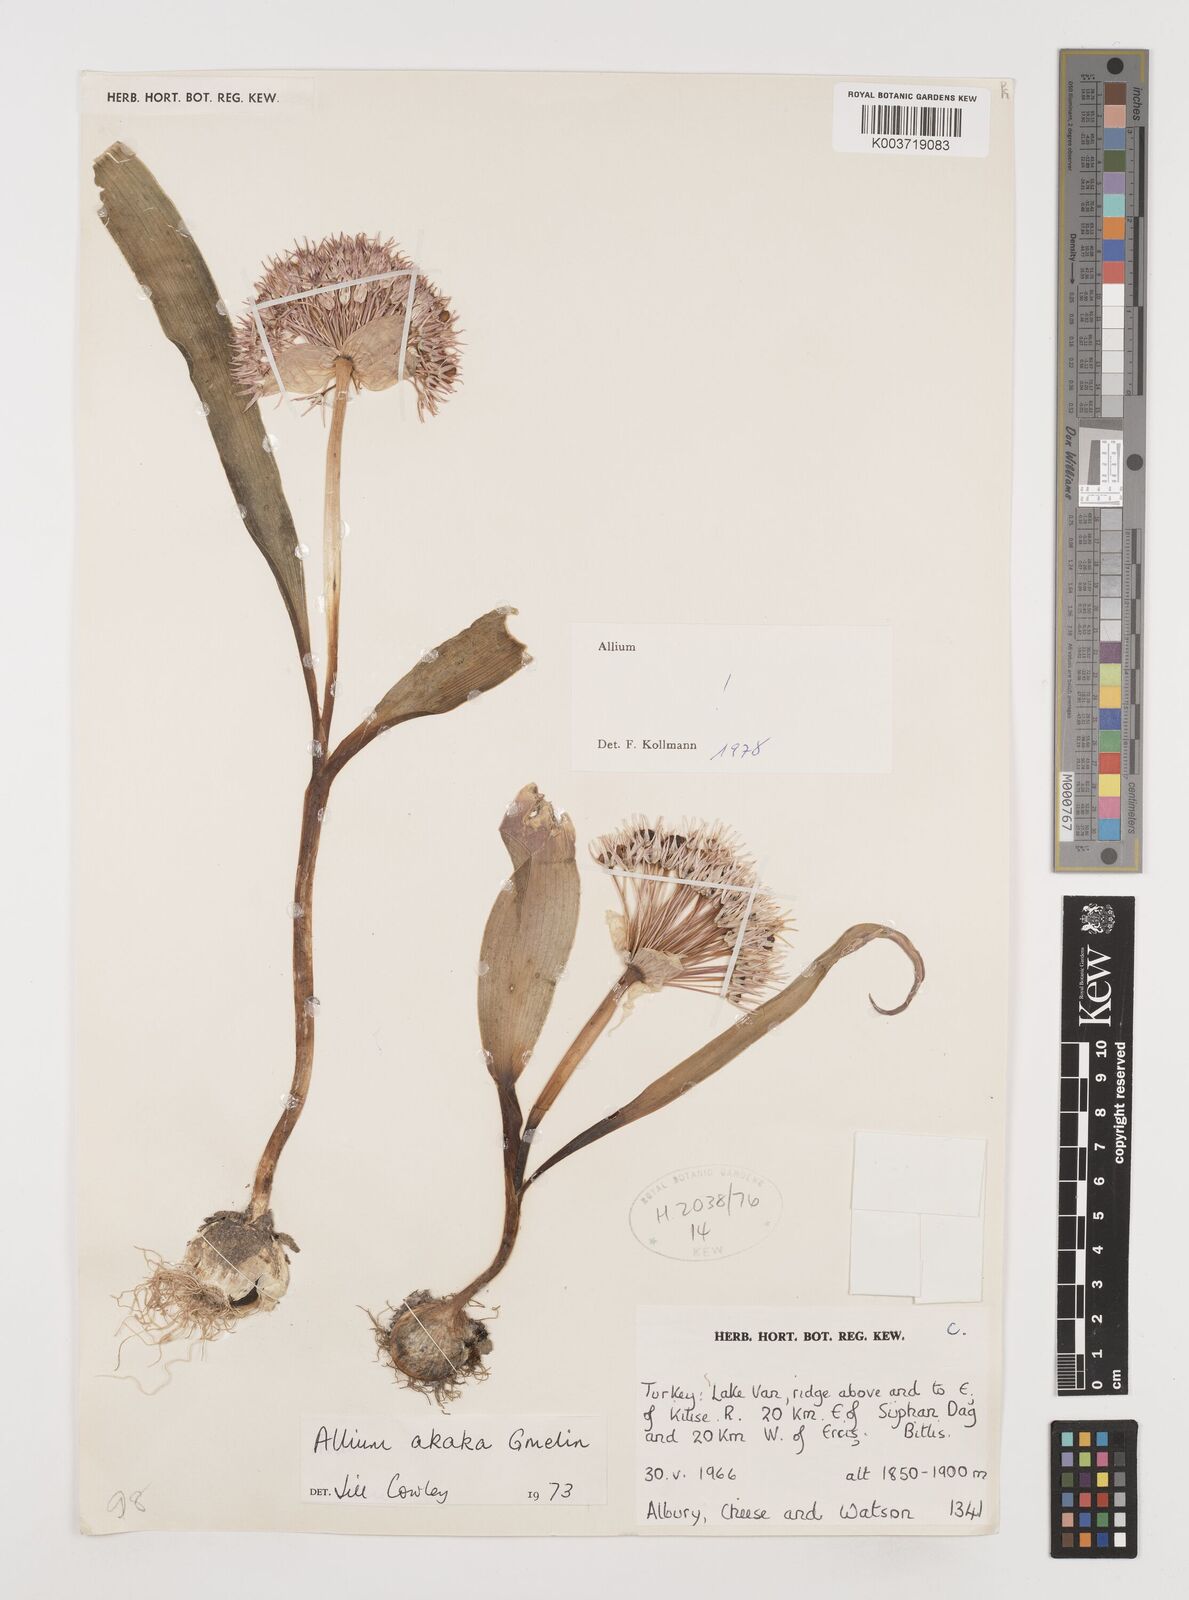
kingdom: Plantae
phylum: Tracheophyta
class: Liliopsida
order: Asparagales
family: Amaryllidaceae
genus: Allium
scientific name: Allium akaka
